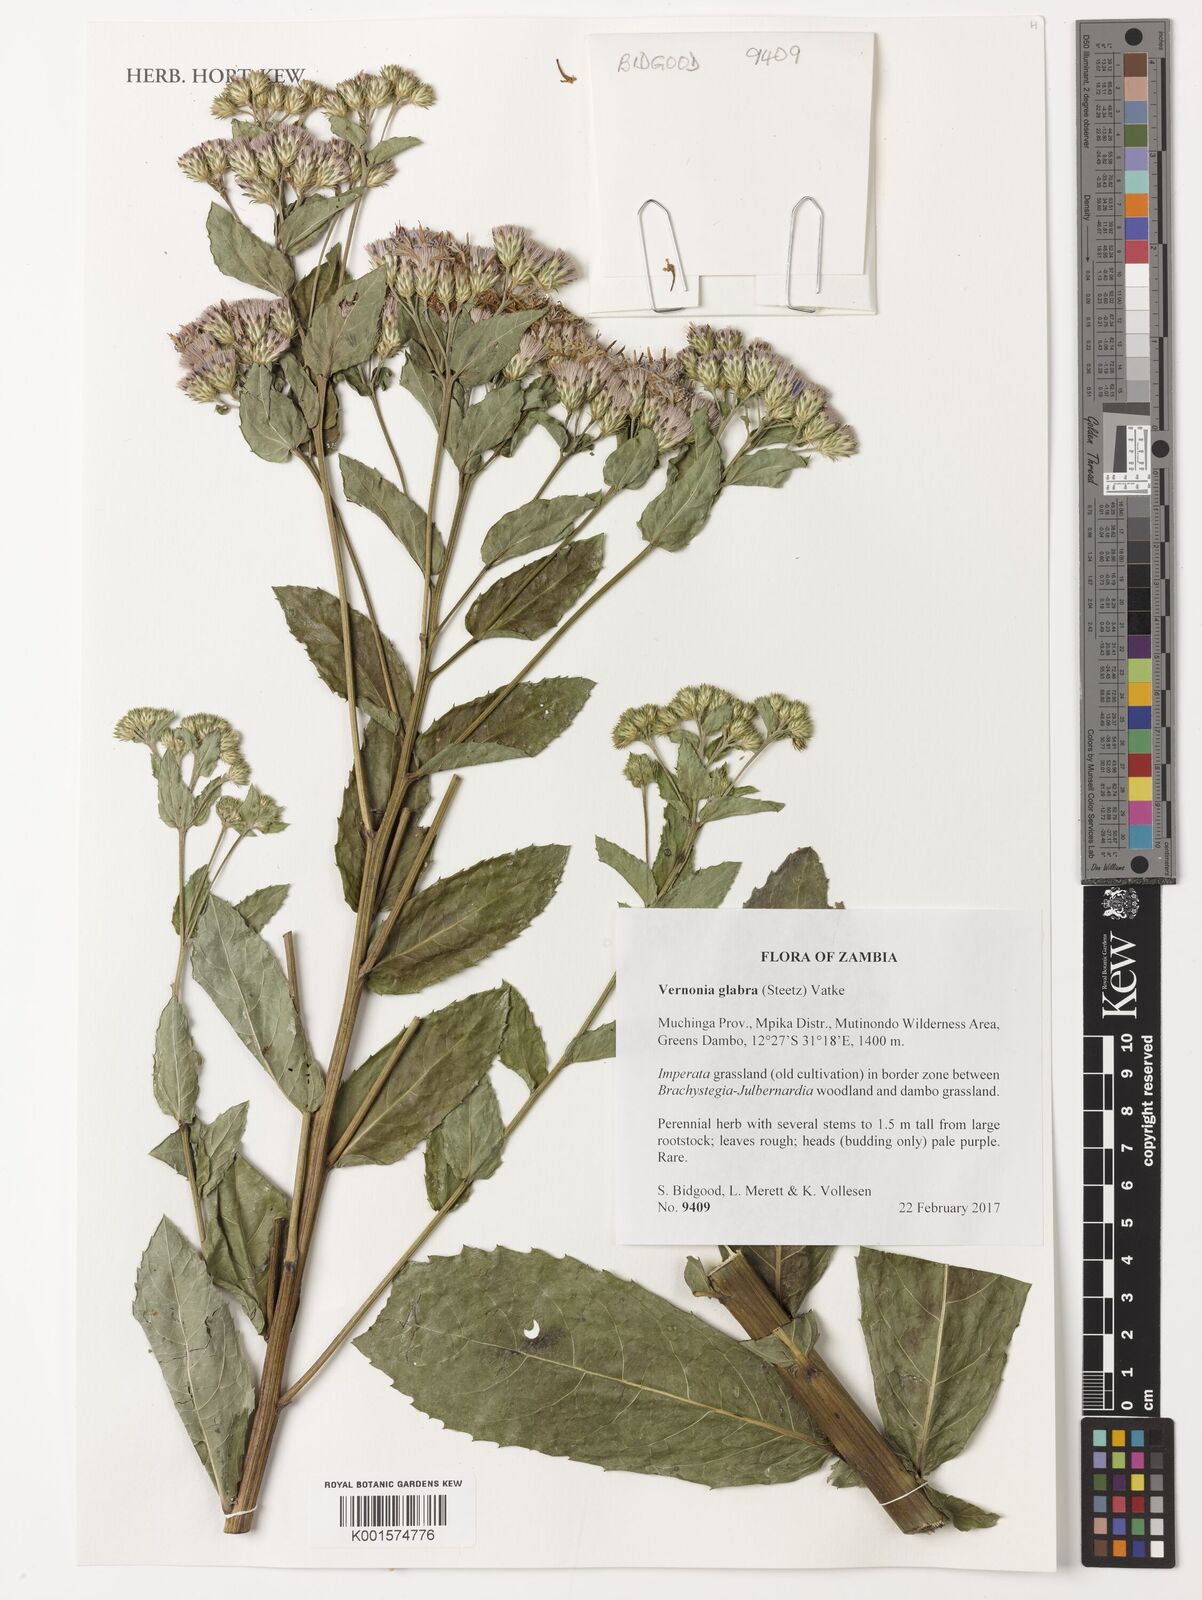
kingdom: Plantae
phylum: Tracheophyta
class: Magnoliopsida
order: Asterales
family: Asteraceae
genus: Linzia
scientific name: Linzia glabra
